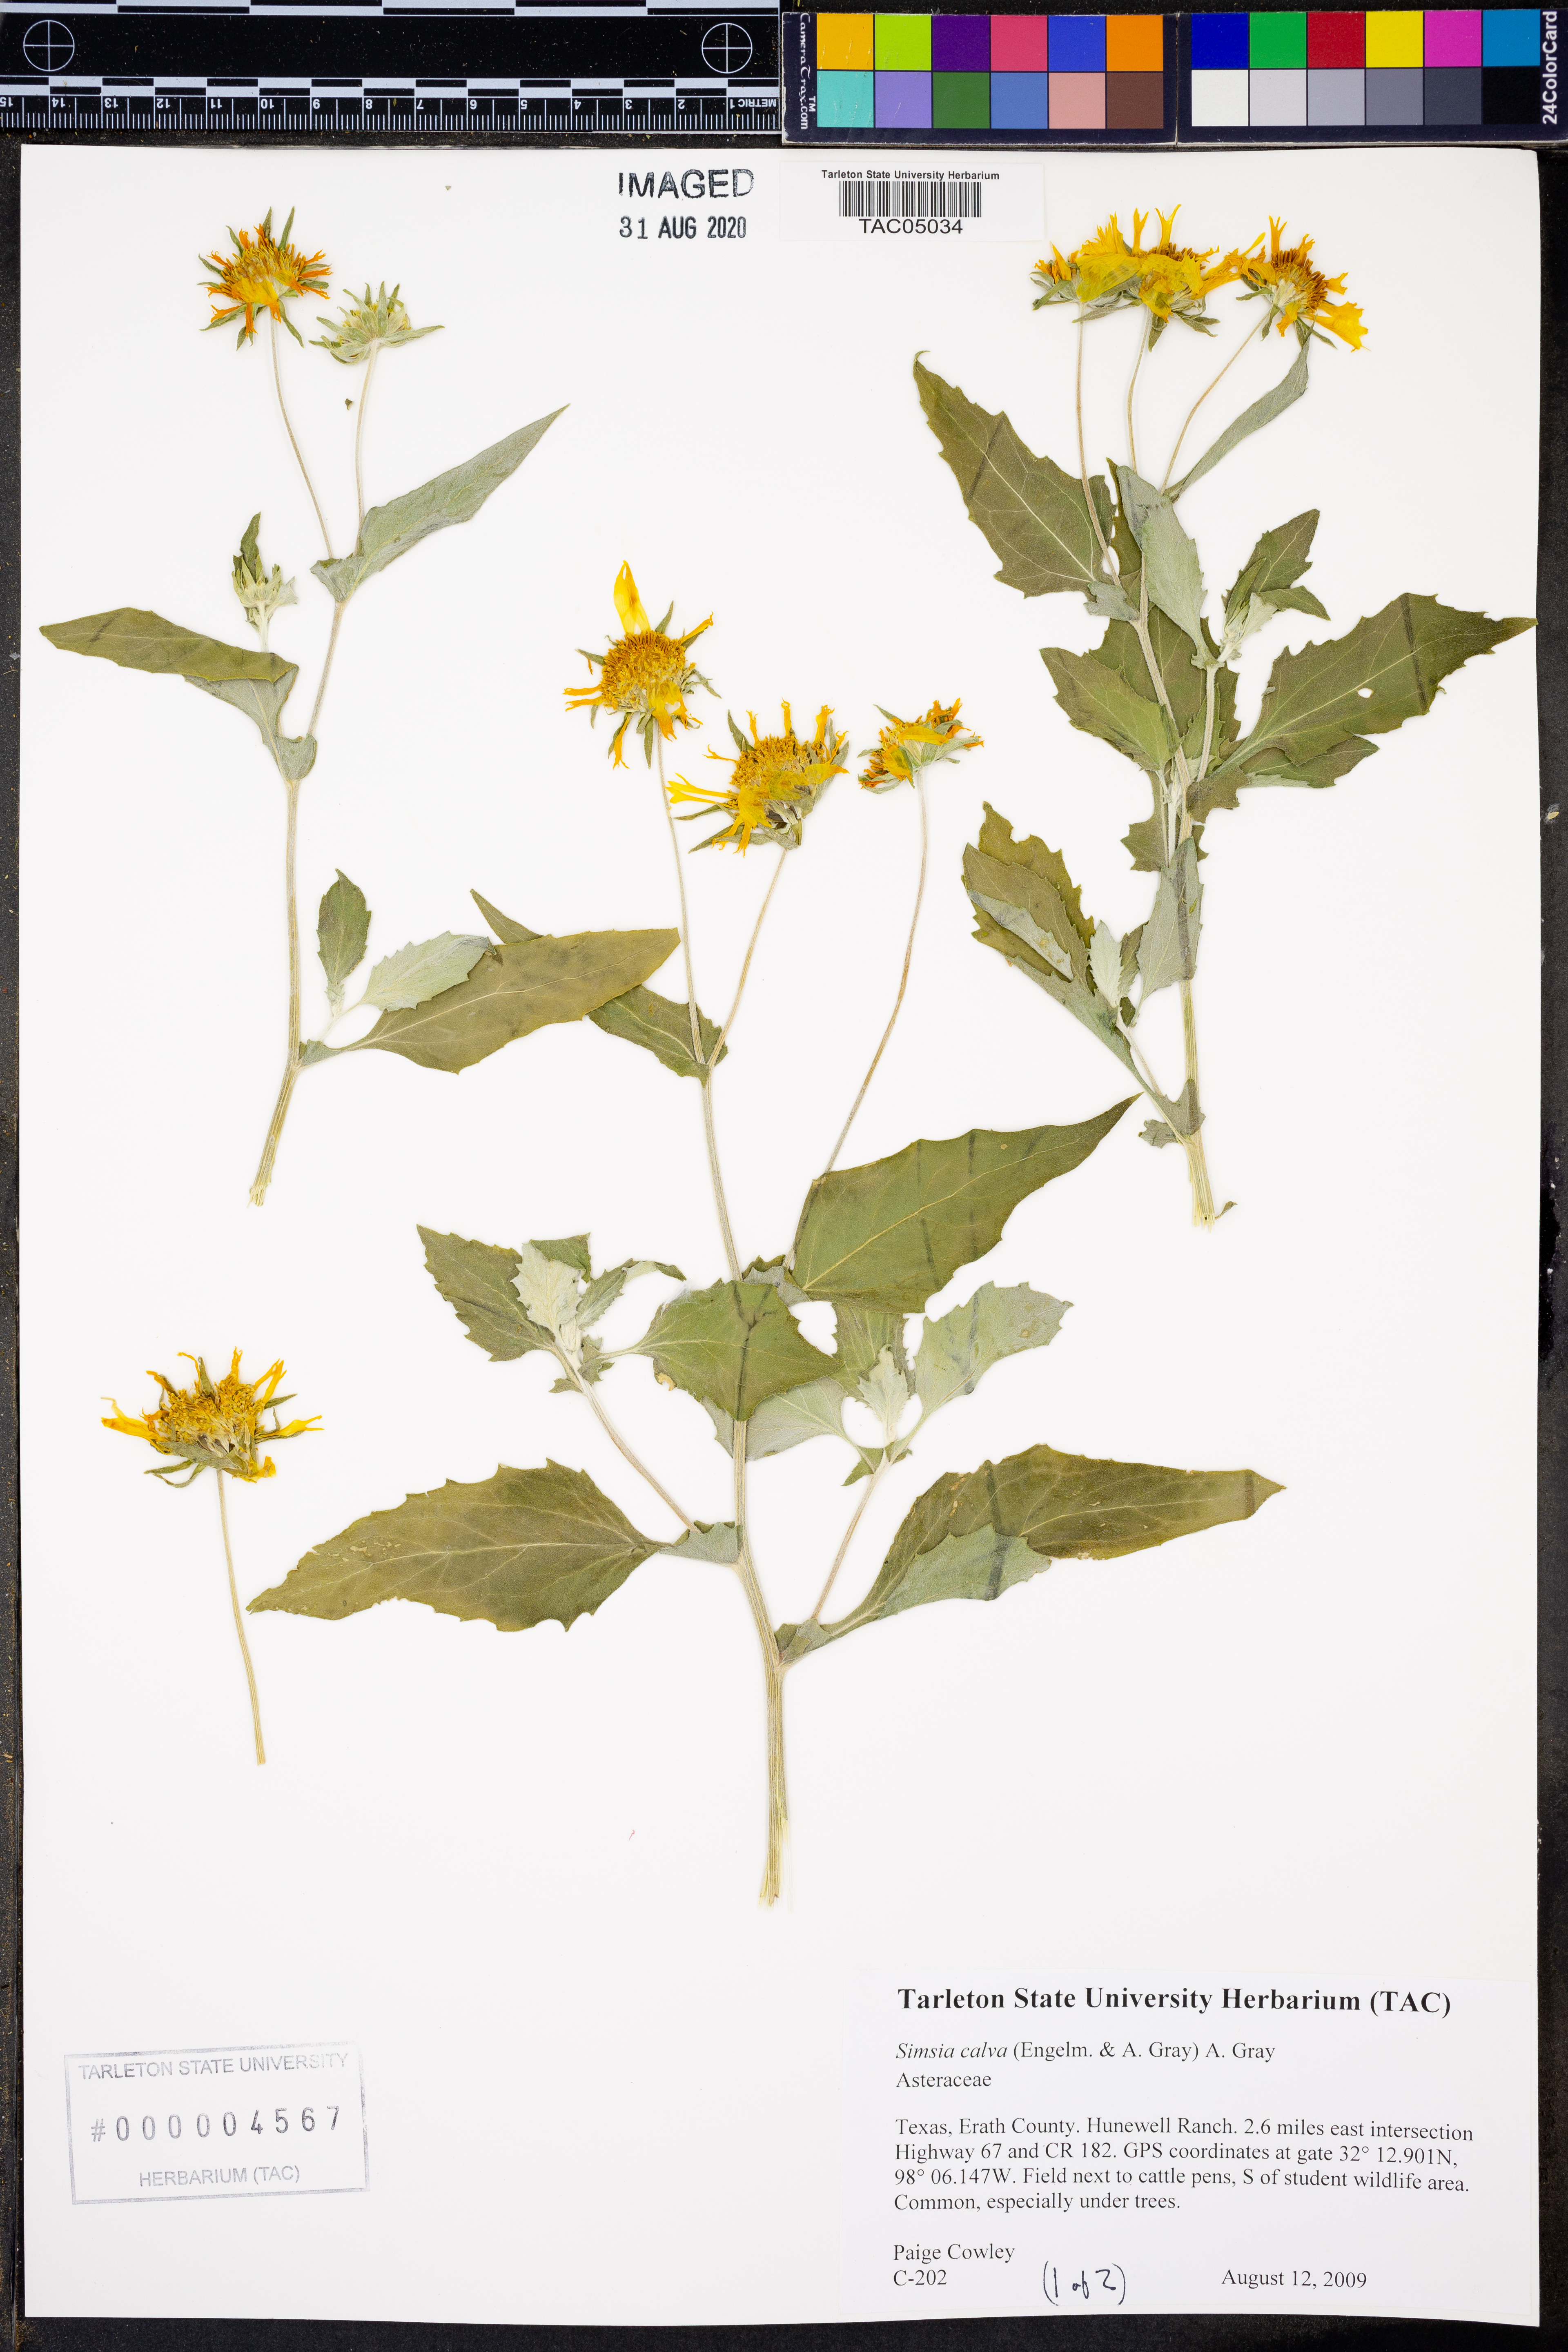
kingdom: Plantae
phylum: Tracheophyta
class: Magnoliopsida
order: Asterales
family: Asteraceae
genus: Simsia
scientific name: Simsia calva
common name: Awnless bush-sunflower
